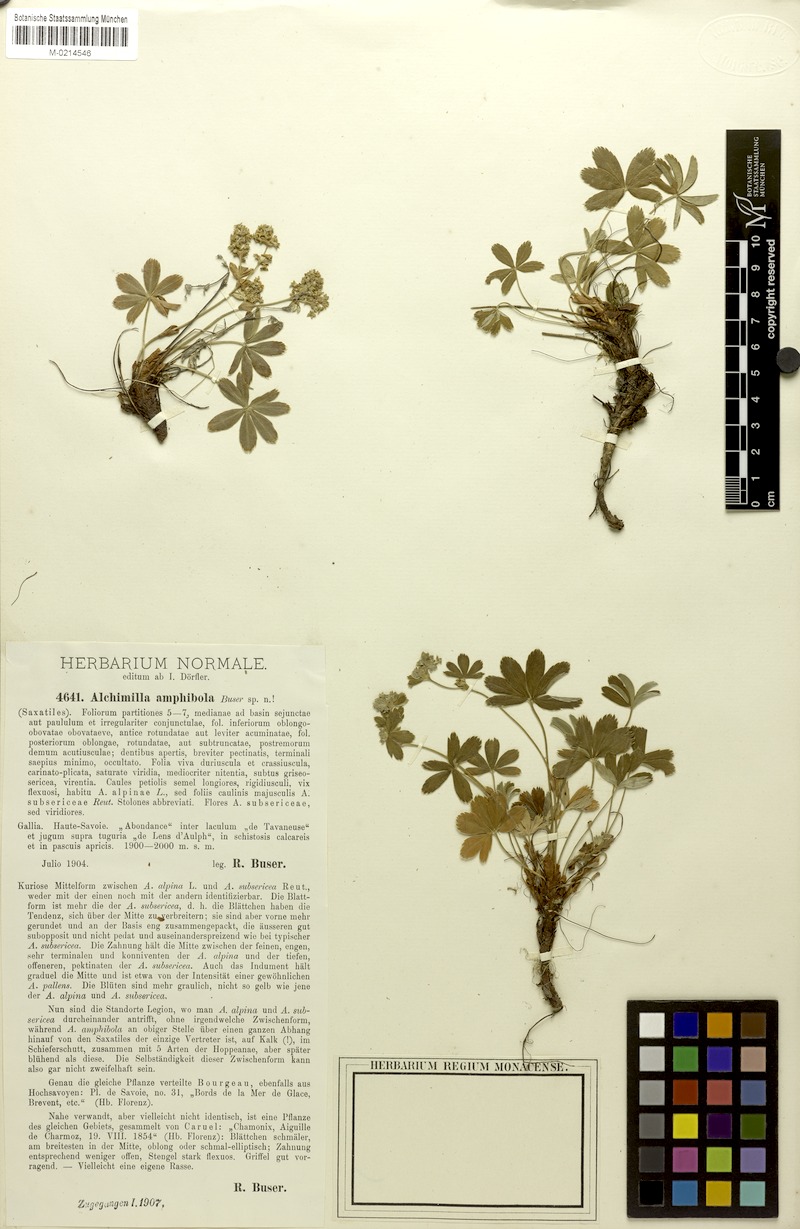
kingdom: Plantae
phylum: Tracheophyta
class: Magnoliopsida
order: Rosales
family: Rosaceae
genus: Alchemilla
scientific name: Alchemilla amphibola
